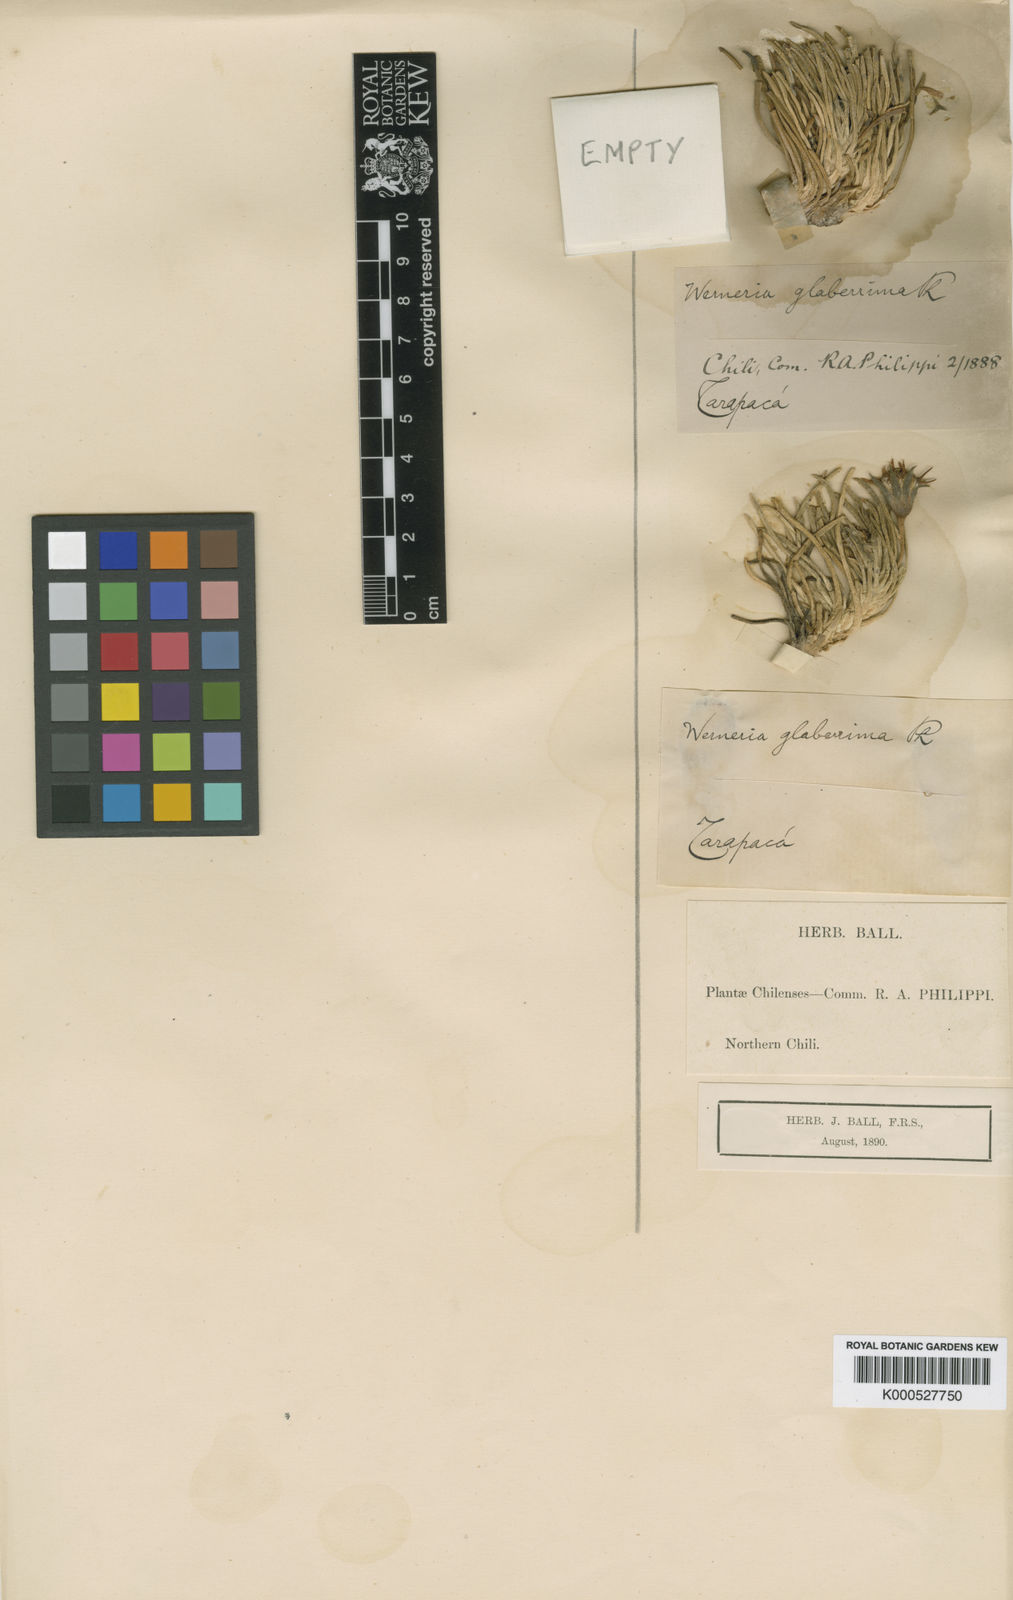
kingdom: Plantae
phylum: Tracheophyta
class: Magnoliopsida
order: Asterales
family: Asteraceae
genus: Rockhausenia
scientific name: Rockhausenia glaberrima
